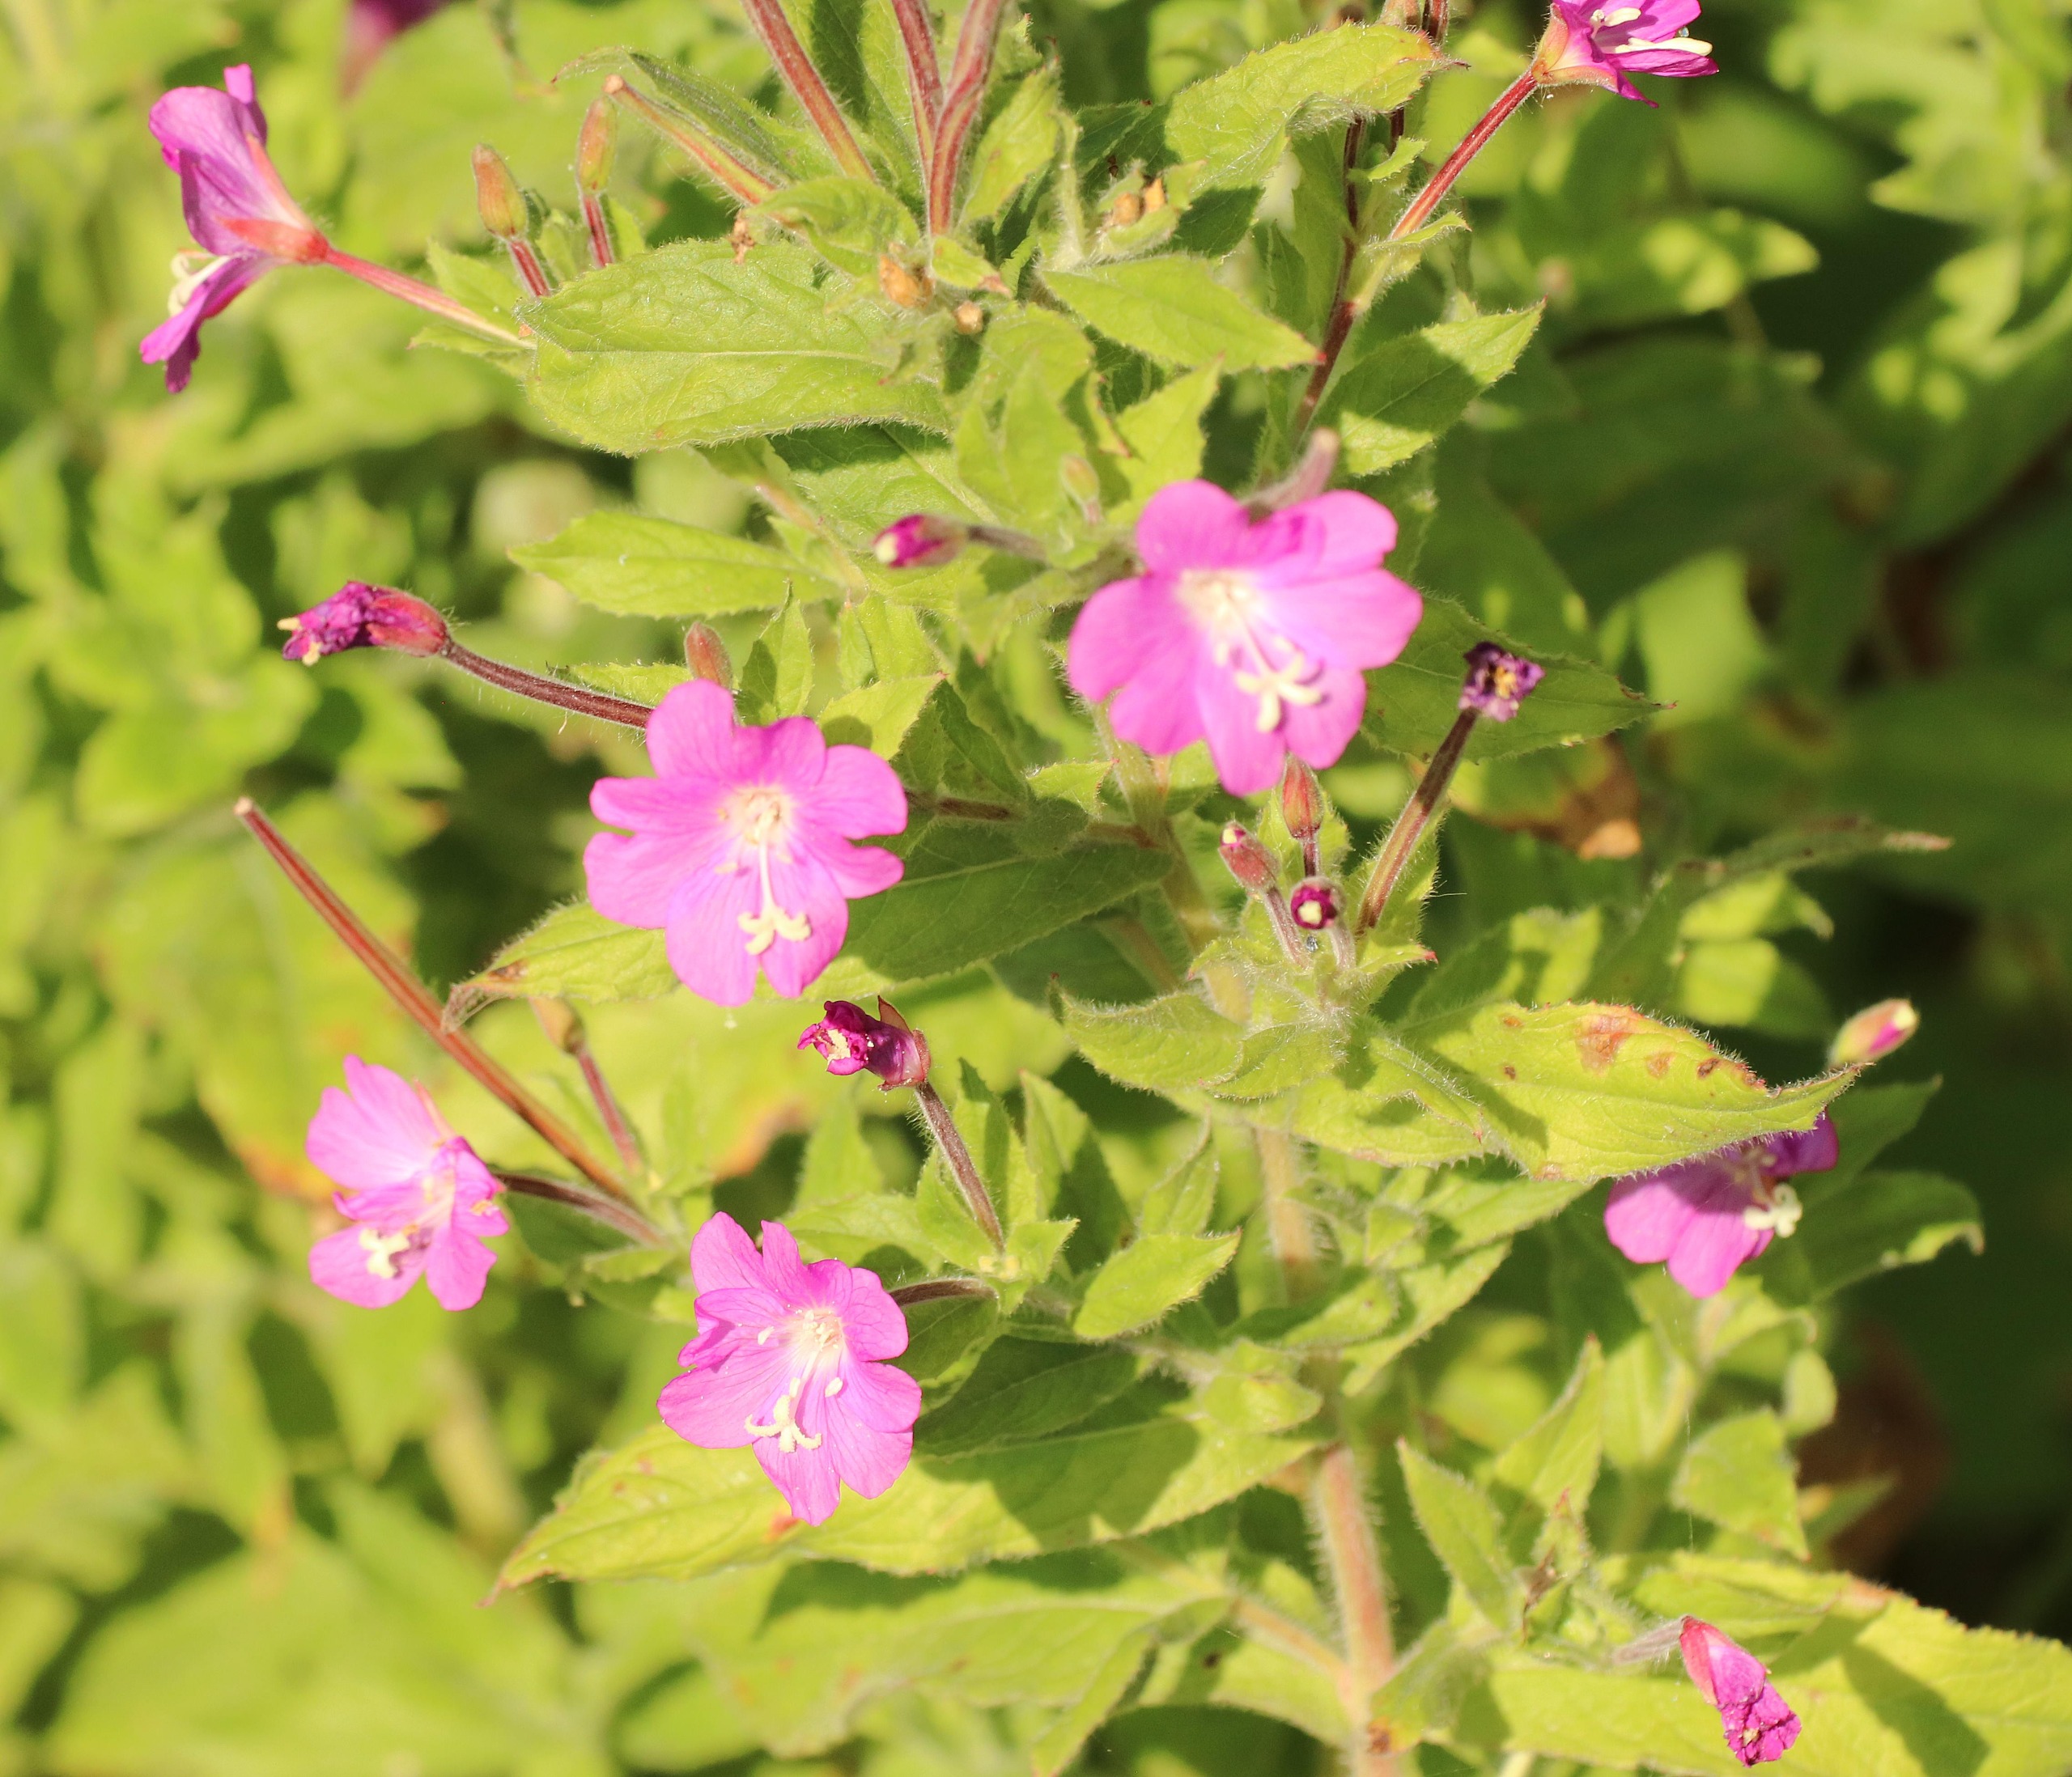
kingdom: Plantae
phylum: Tracheophyta
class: Magnoliopsida
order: Myrtales
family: Onagraceae
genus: Epilobium
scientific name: Epilobium hirsutum
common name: Lådden dueurt
